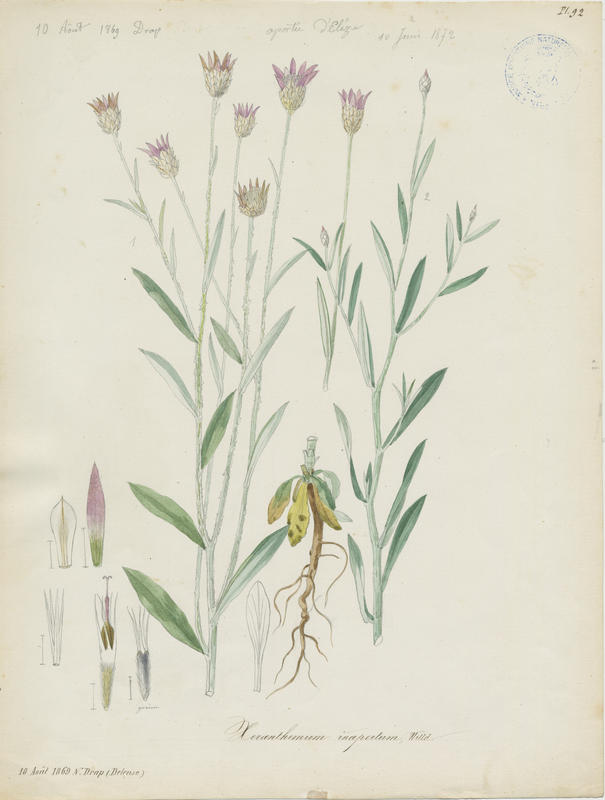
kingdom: Plantae
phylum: Tracheophyta
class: Magnoliopsida
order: Asterales
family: Asteraceae
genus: Xeranthemum
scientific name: Xeranthemum inapterum
